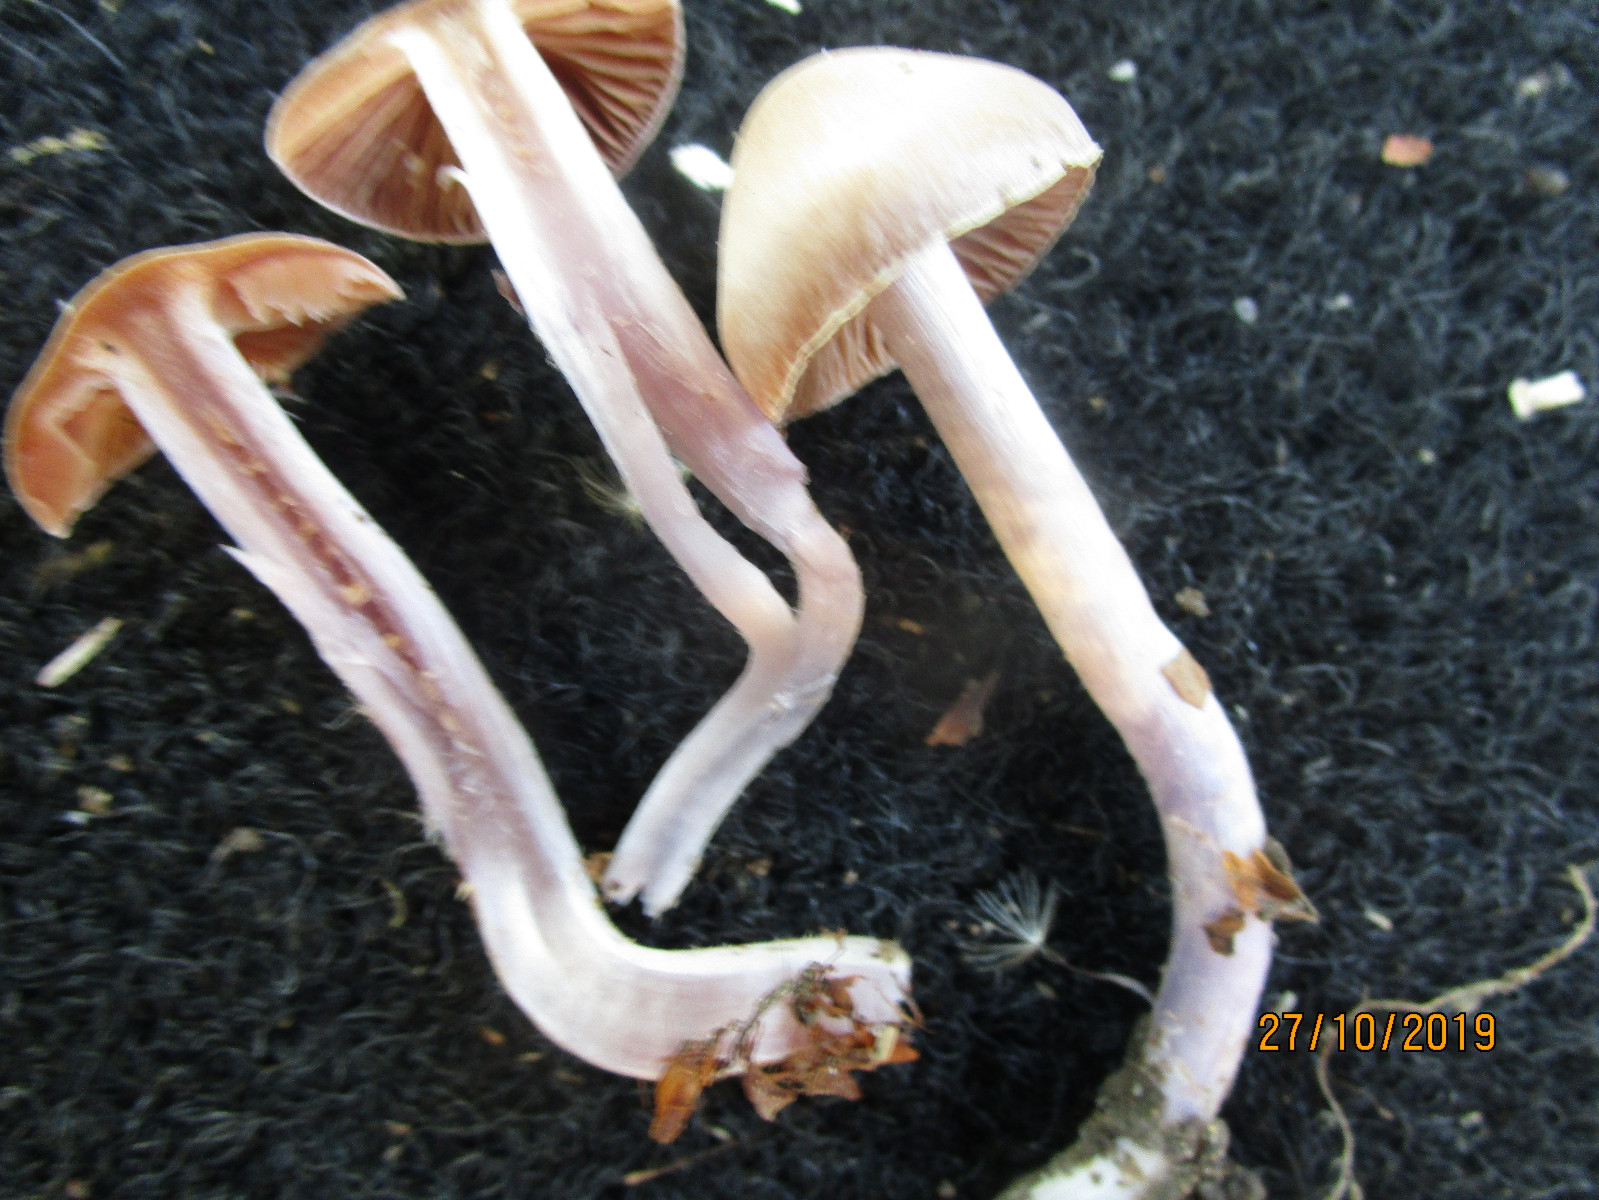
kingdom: Fungi
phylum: Basidiomycota
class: Agaricomycetes
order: Agaricales
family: Cortinariaceae
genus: Cortinarius
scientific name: Cortinarius cagei
